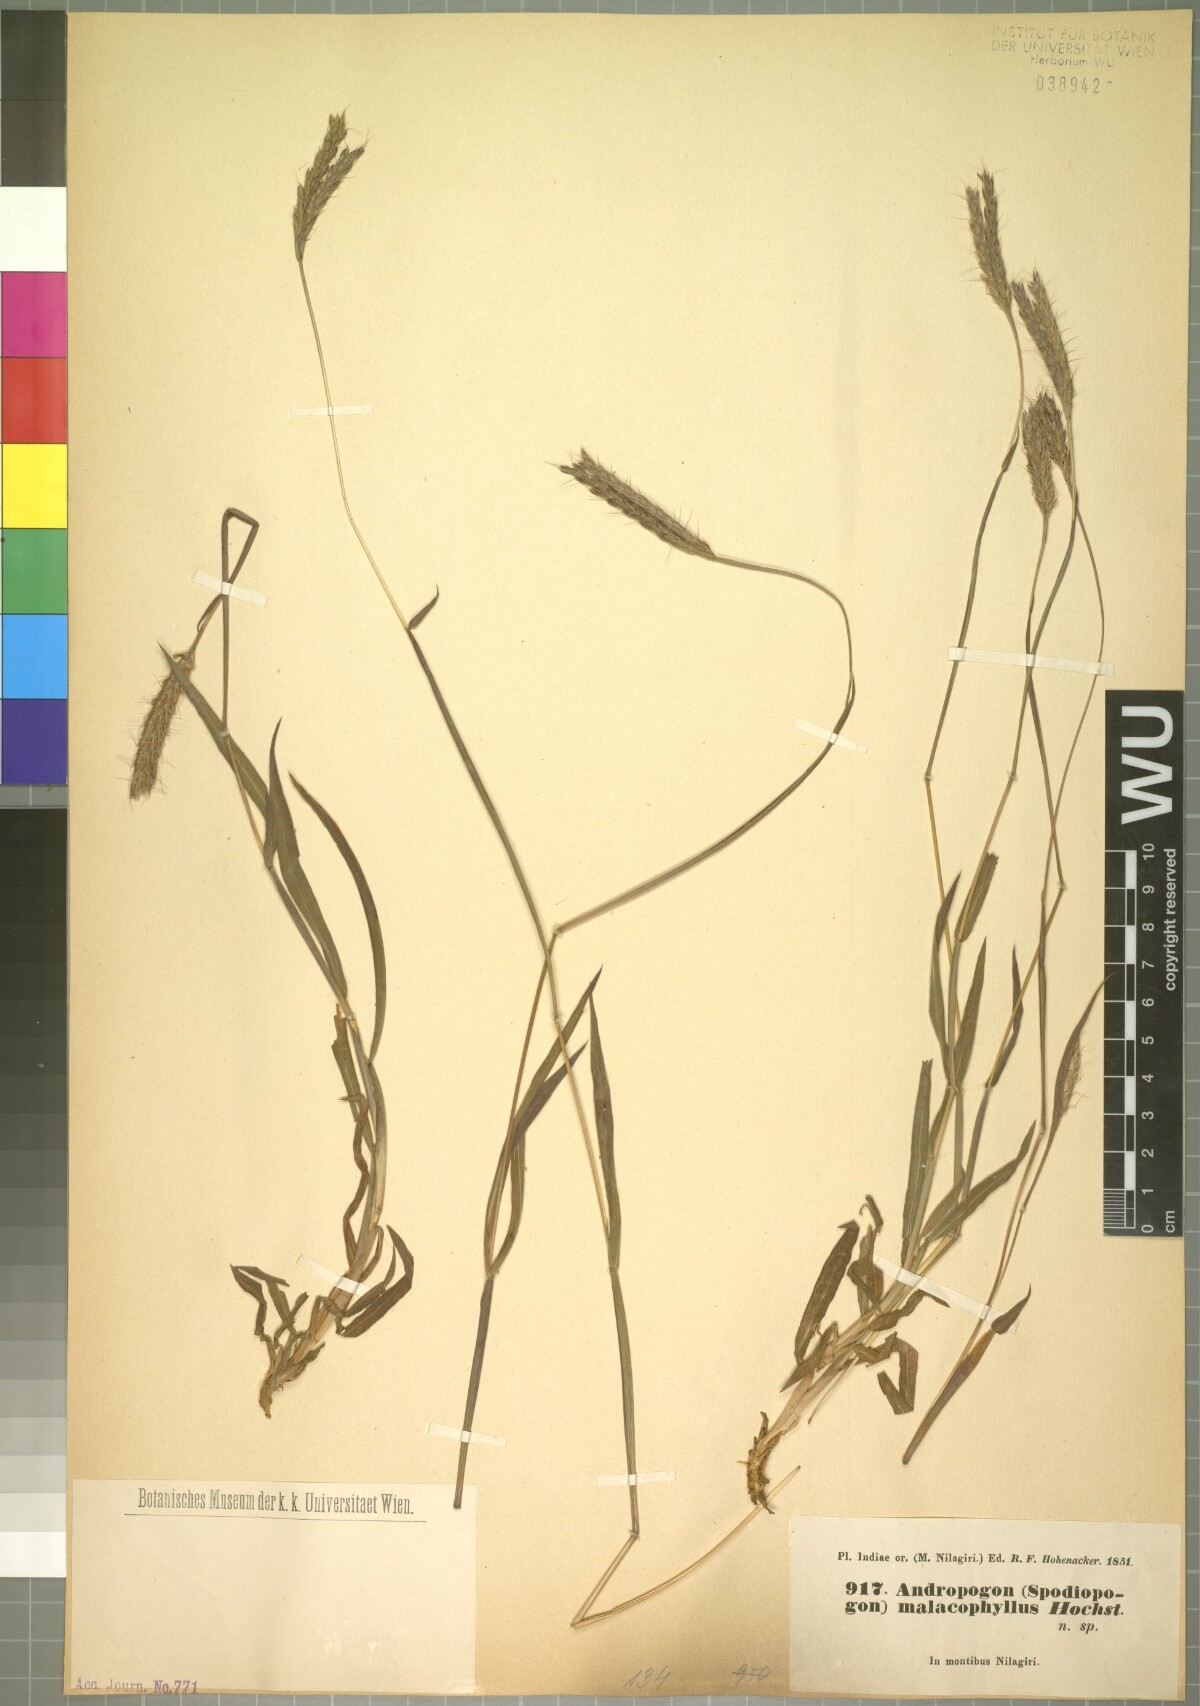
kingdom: Plantae
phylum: Tracheophyta
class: Liliopsida
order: Poales
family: Poaceae
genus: Ischaemum
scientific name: Ischaemum ciliare
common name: Grass
